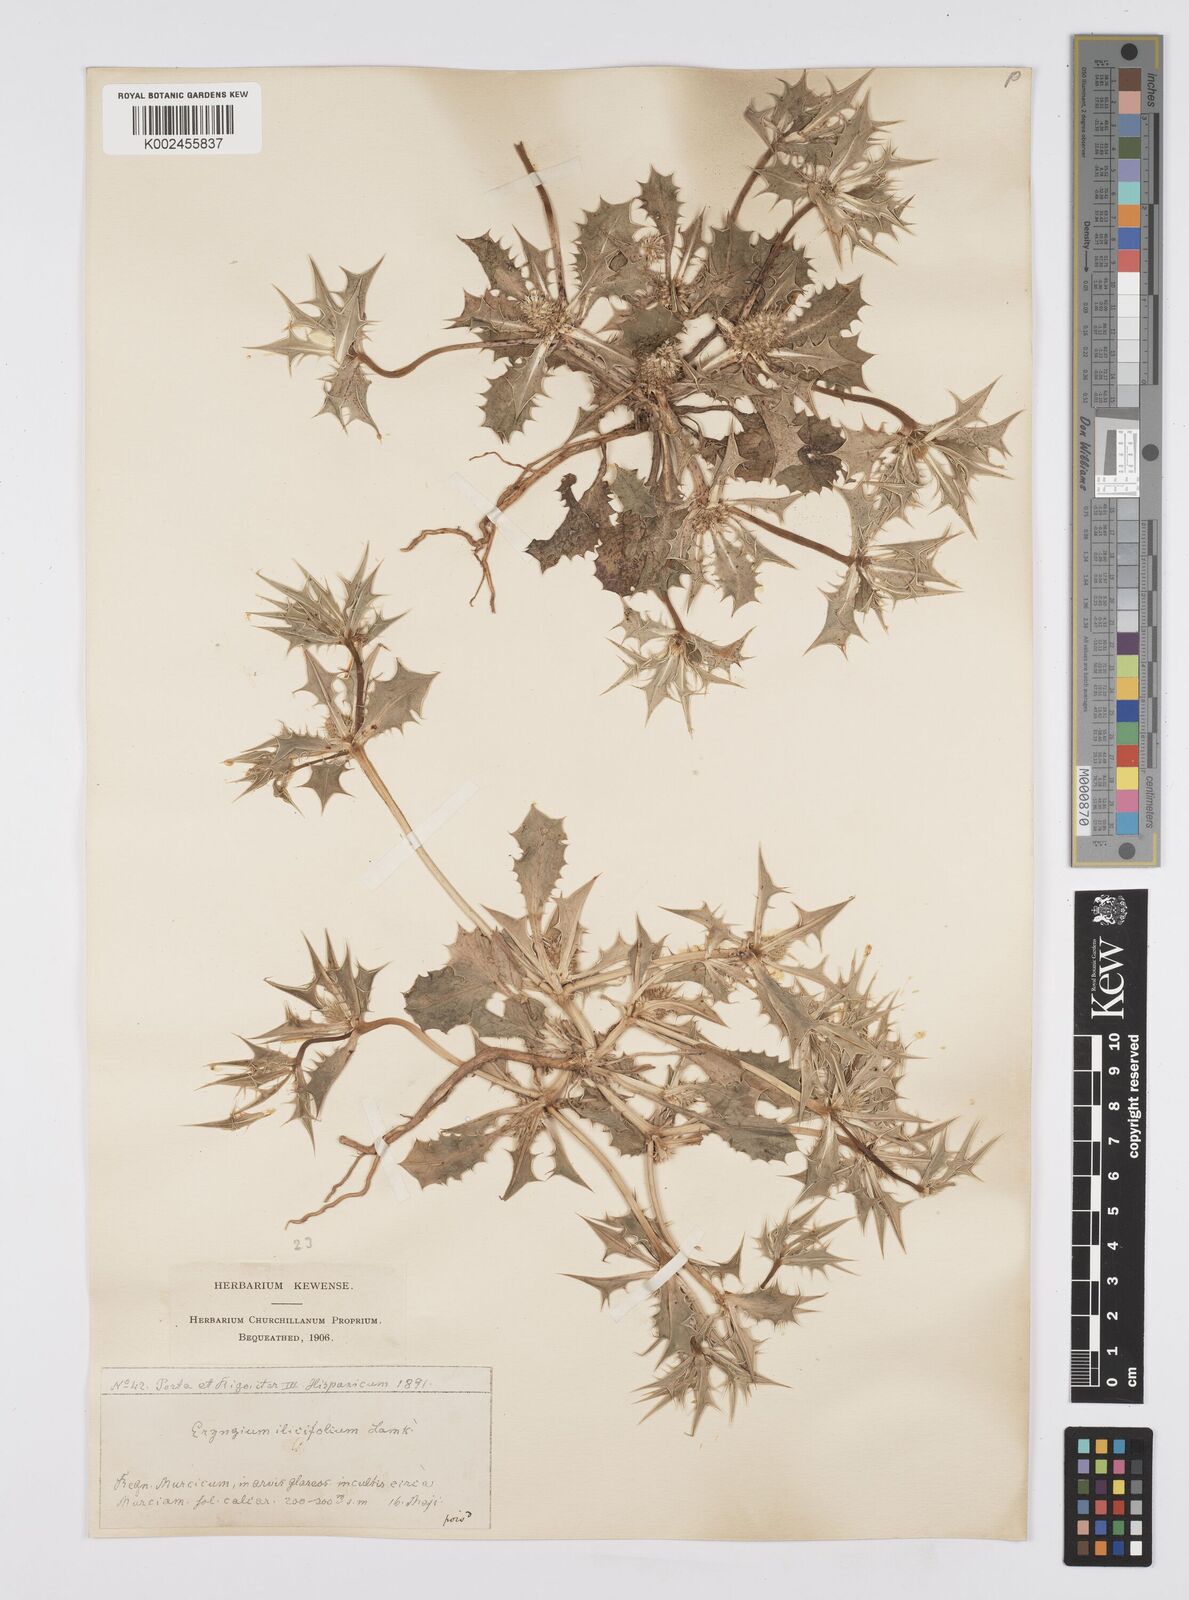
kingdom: Plantae
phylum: Tracheophyta
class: Magnoliopsida
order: Apiales
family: Apiaceae
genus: Eryngium
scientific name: Eryngium
